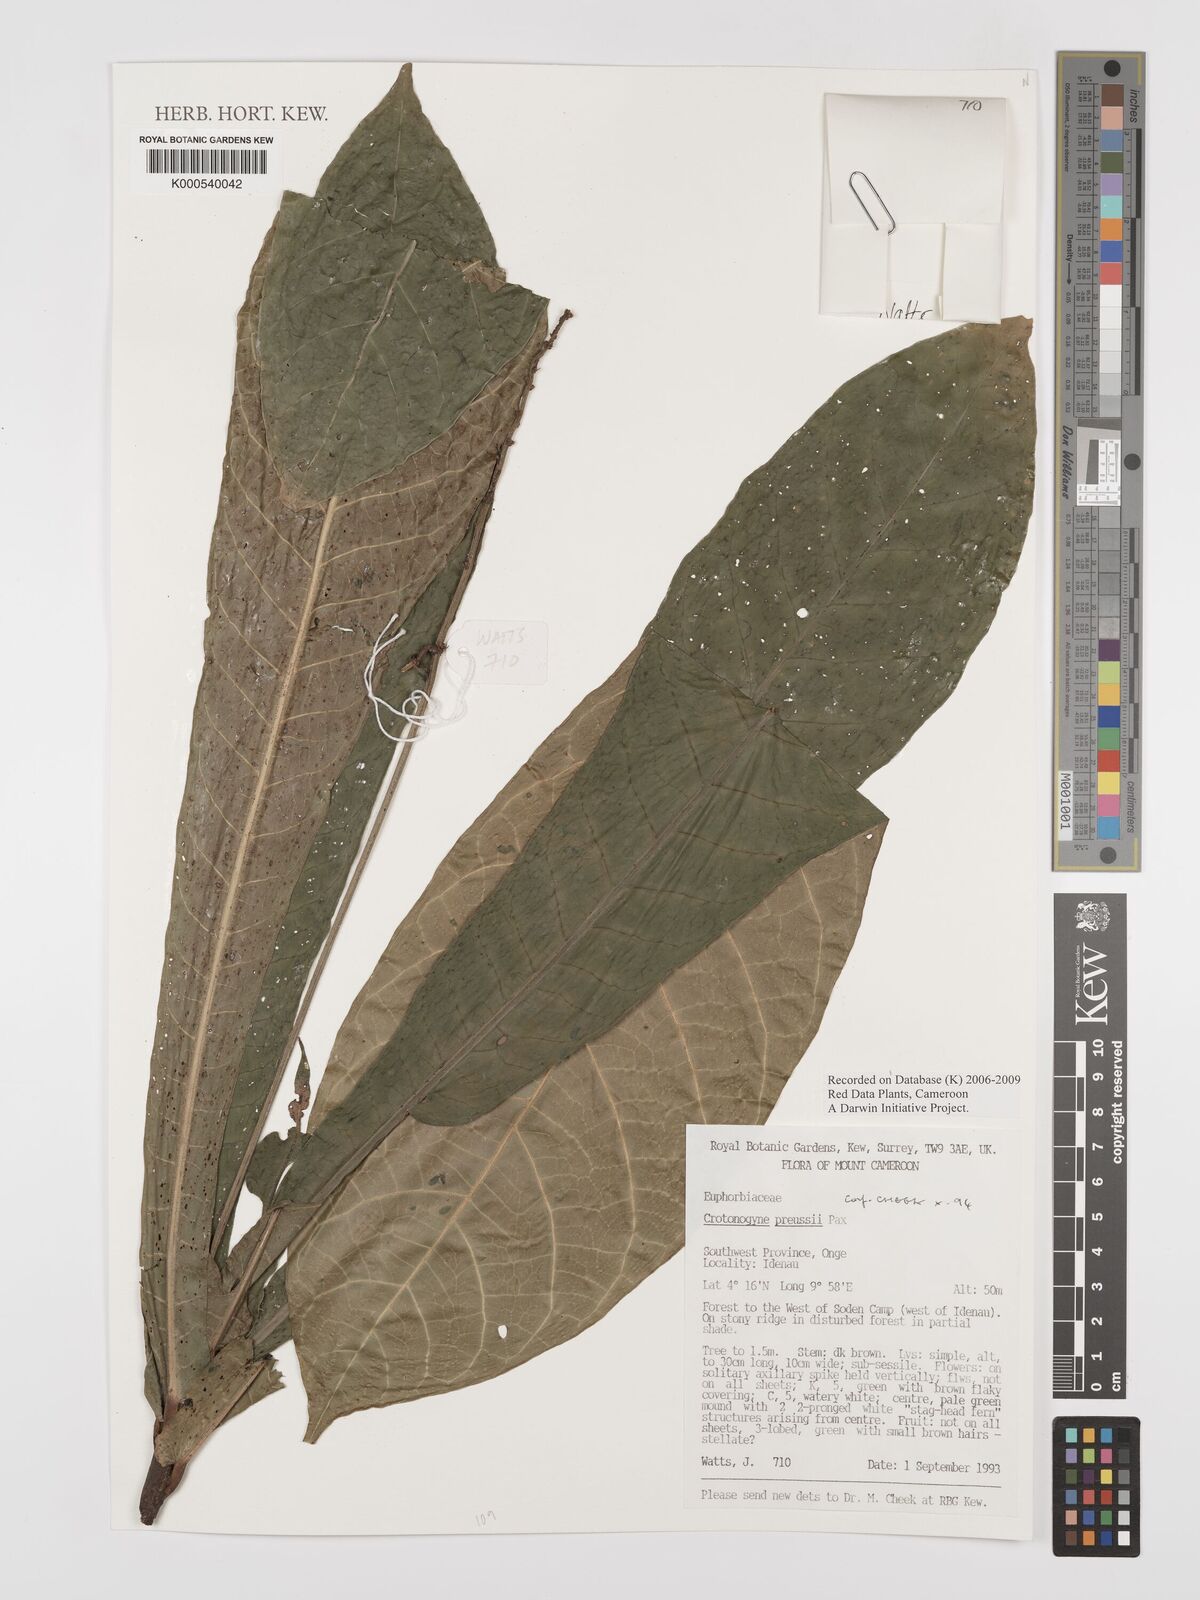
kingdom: Plantae
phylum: Tracheophyta
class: Magnoliopsida
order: Malpighiales
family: Euphorbiaceae
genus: Crotonogyne
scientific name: Crotonogyne preussii
